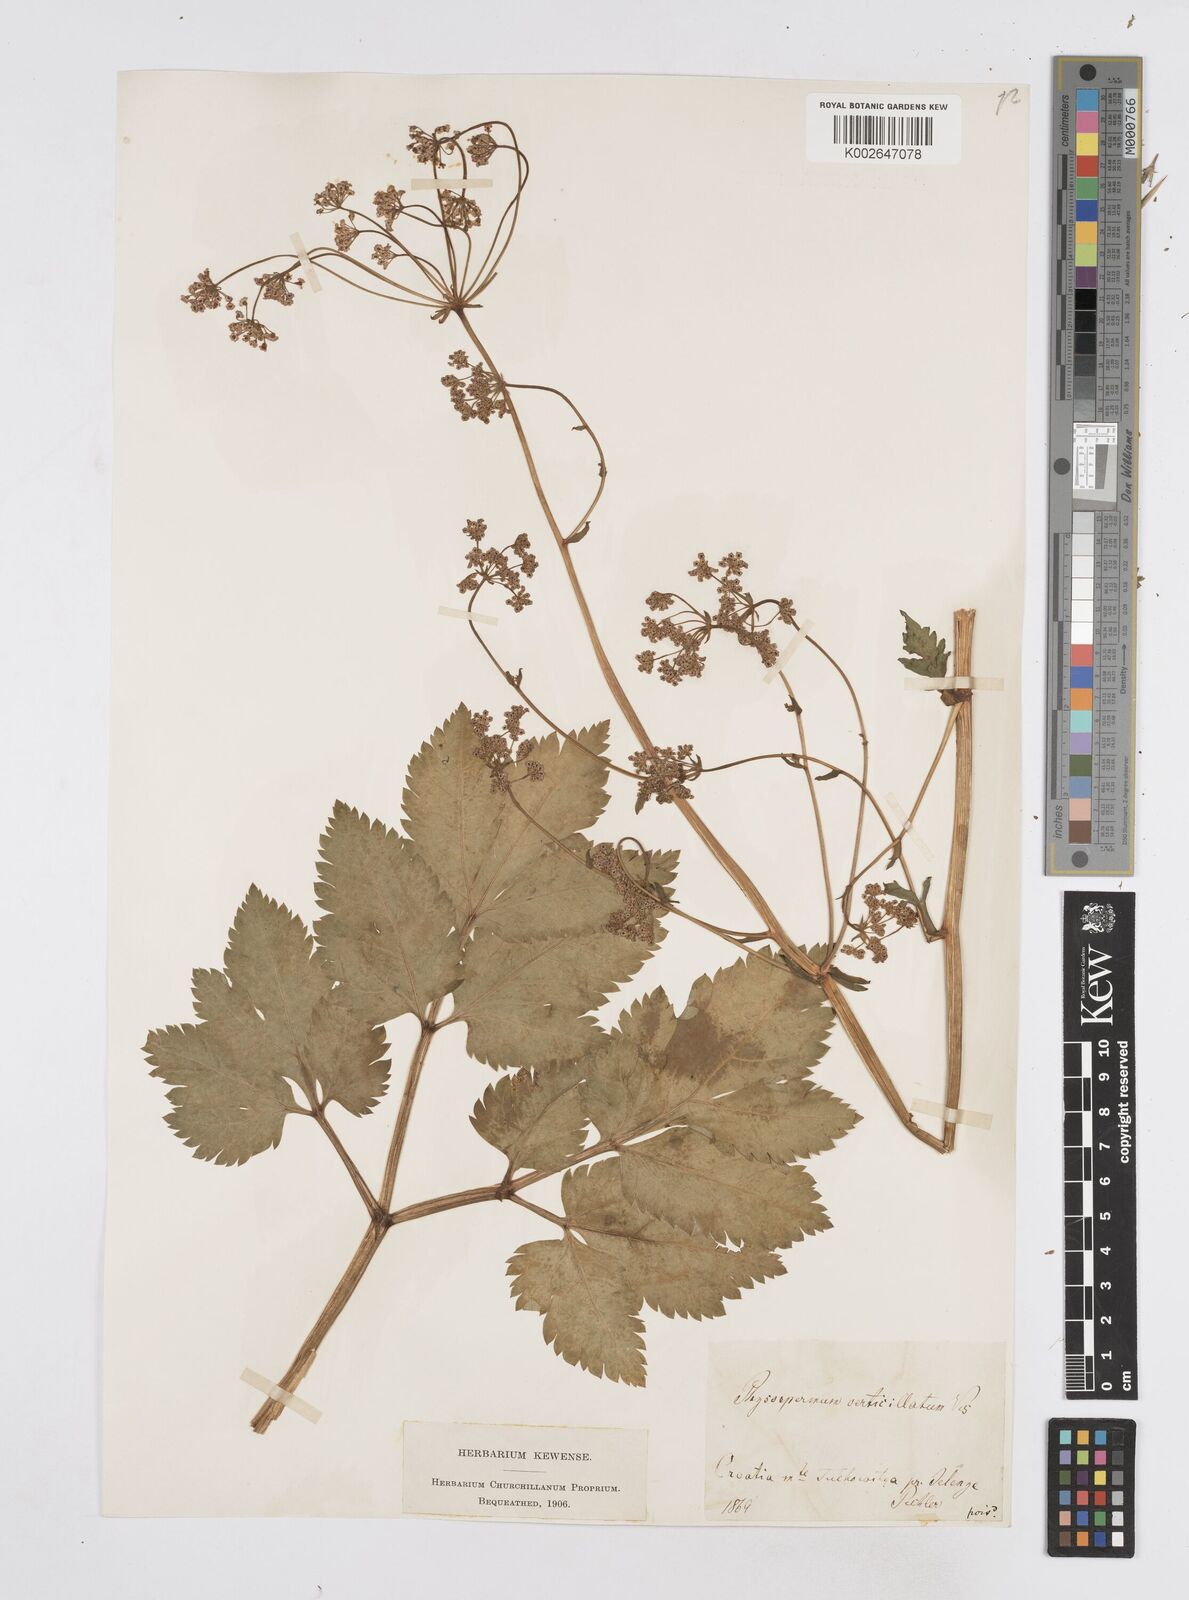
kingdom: Plantae
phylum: Tracheophyta
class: Magnoliopsida
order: Apiales
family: Apiaceae
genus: Physospermum
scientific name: Physospermum cornubiense
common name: Bladderseed
